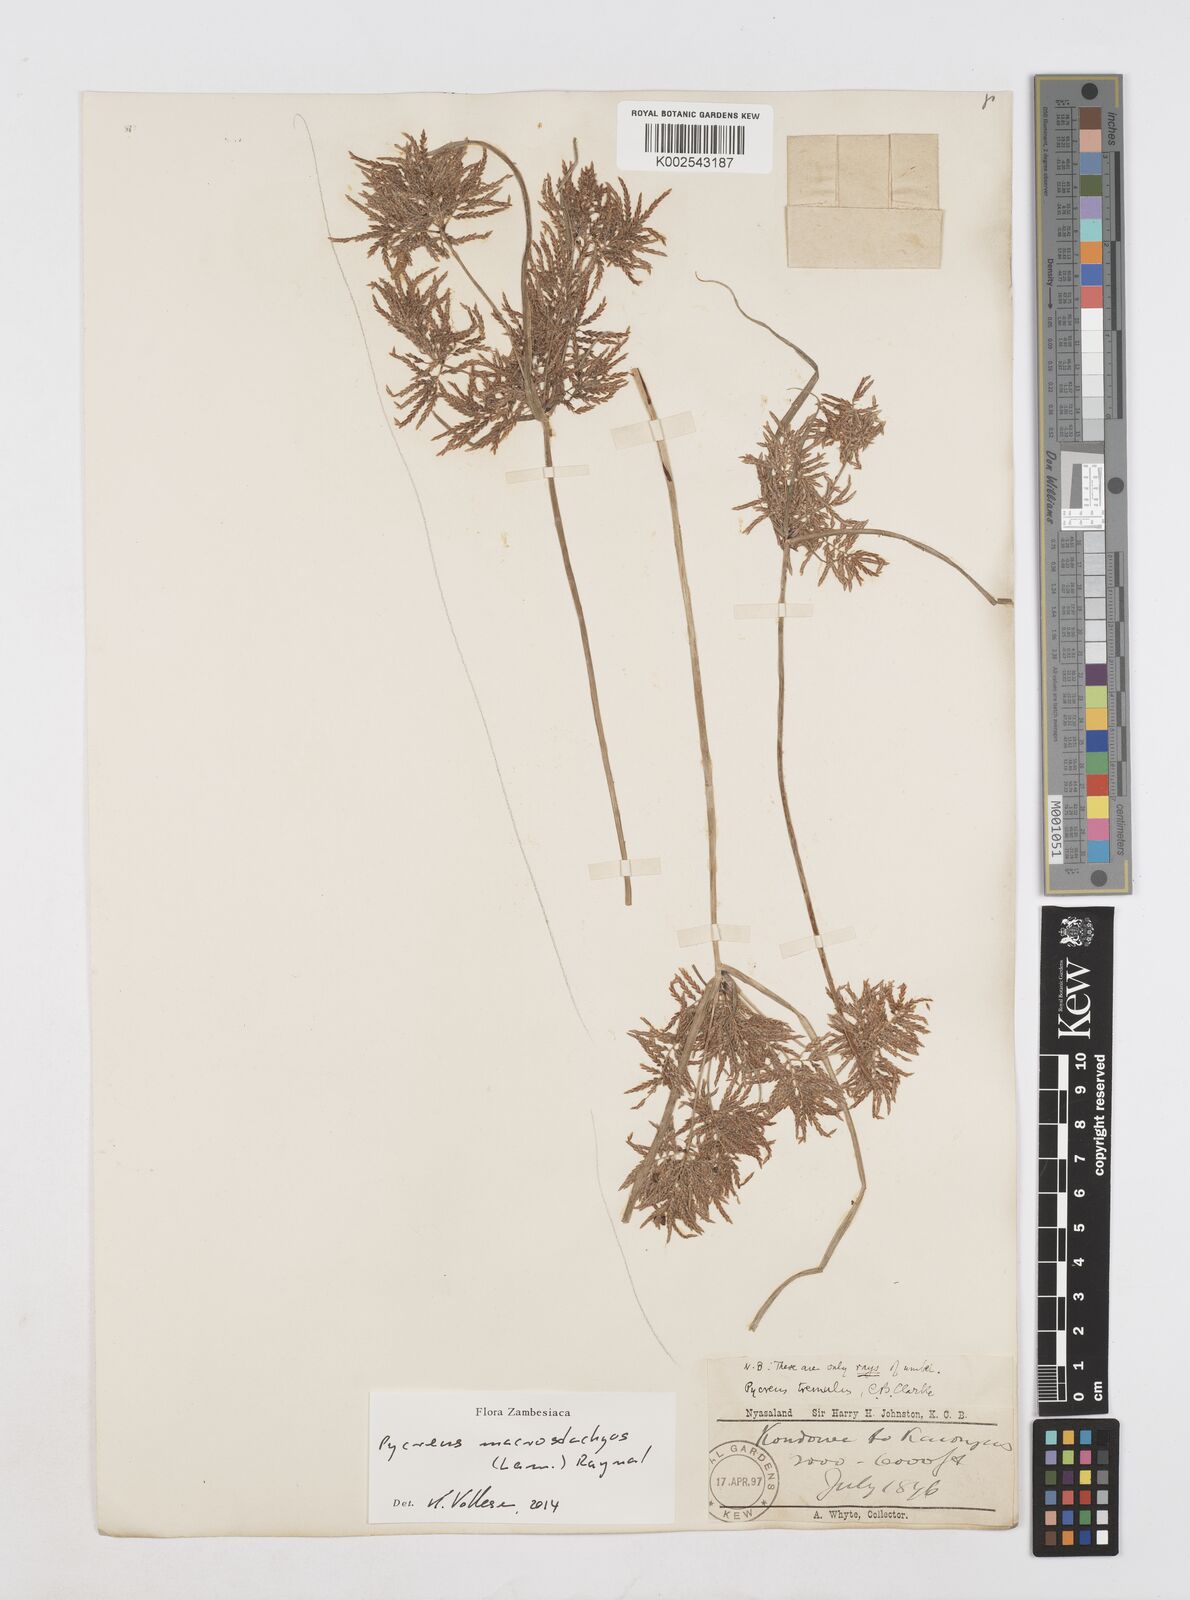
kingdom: Plantae
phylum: Tracheophyta
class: Liliopsida
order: Poales
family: Cyperaceae
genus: Cyperus
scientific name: Cyperus macrostachyos
